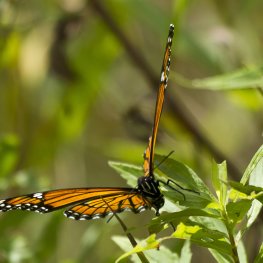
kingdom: Animalia
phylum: Arthropoda
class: Insecta
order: Lepidoptera
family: Nymphalidae
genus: Limenitis
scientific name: Limenitis archippus
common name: Viceroy
